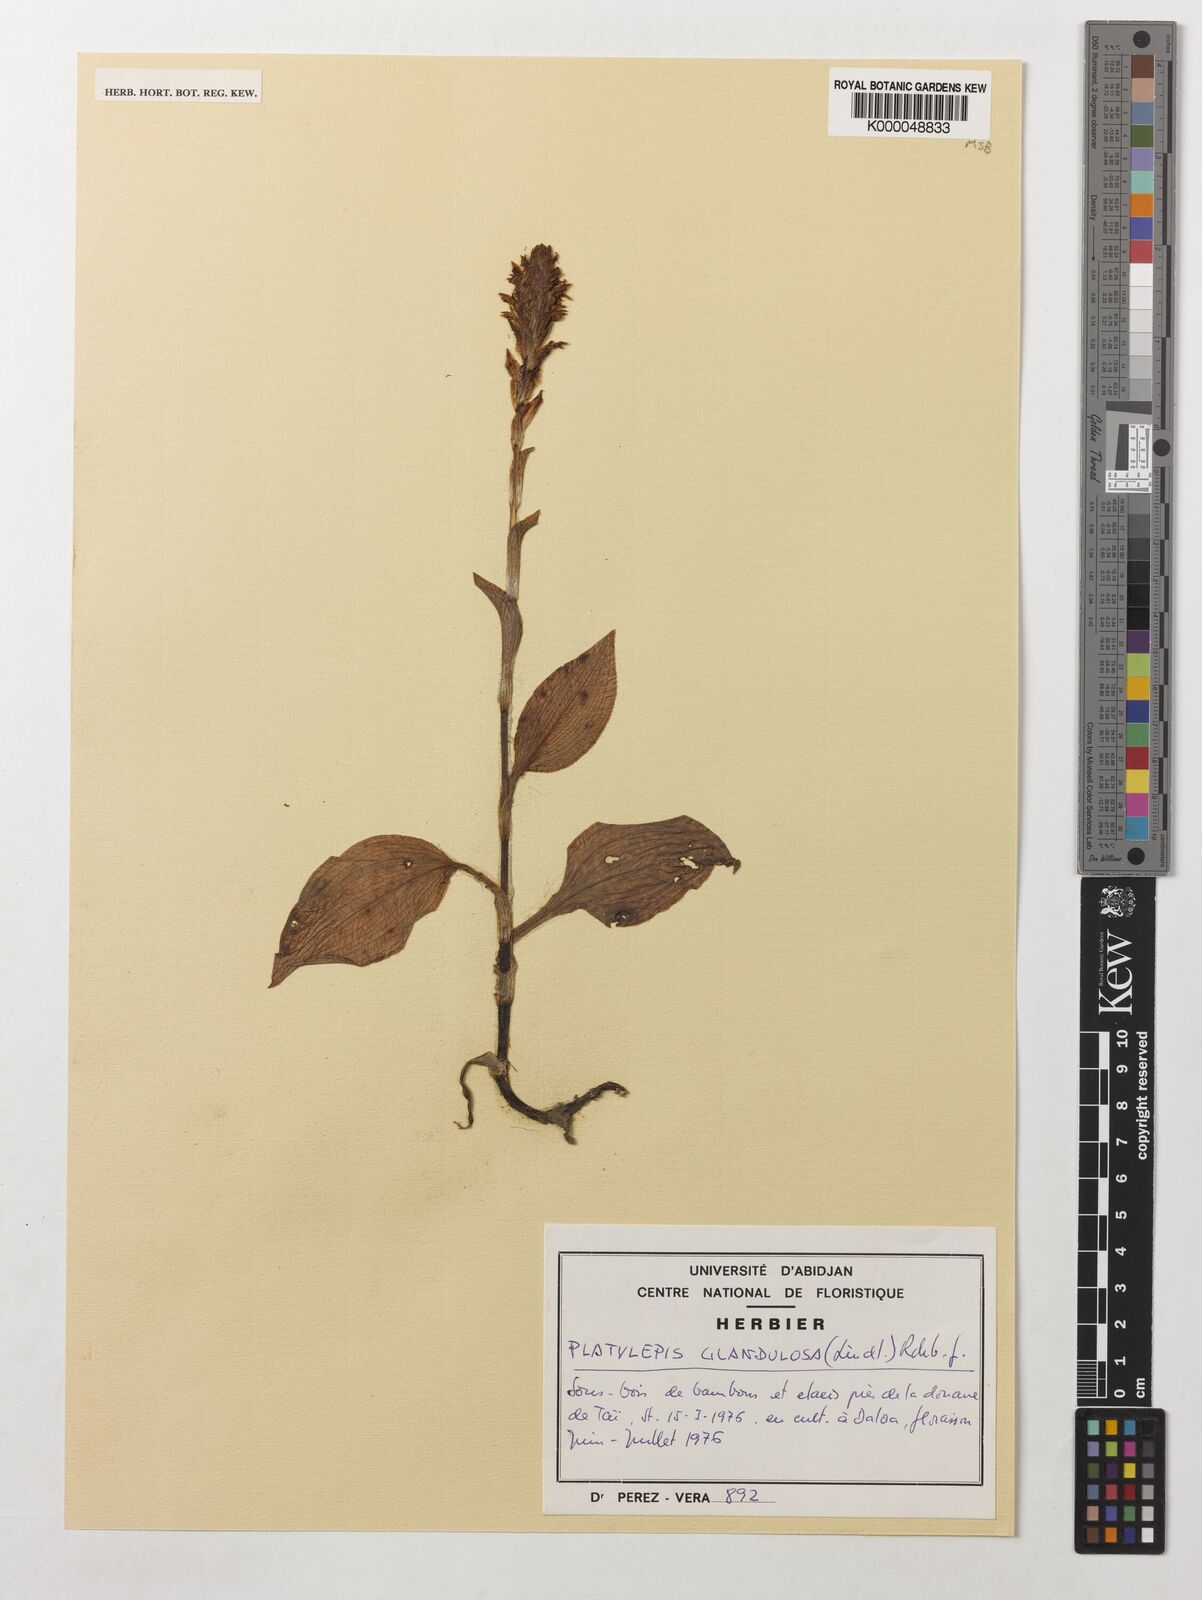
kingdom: Plantae
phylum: Tracheophyta
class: Liliopsida
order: Asparagales
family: Orchidaceae
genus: Platylepis
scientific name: Platylepis glandulosa
